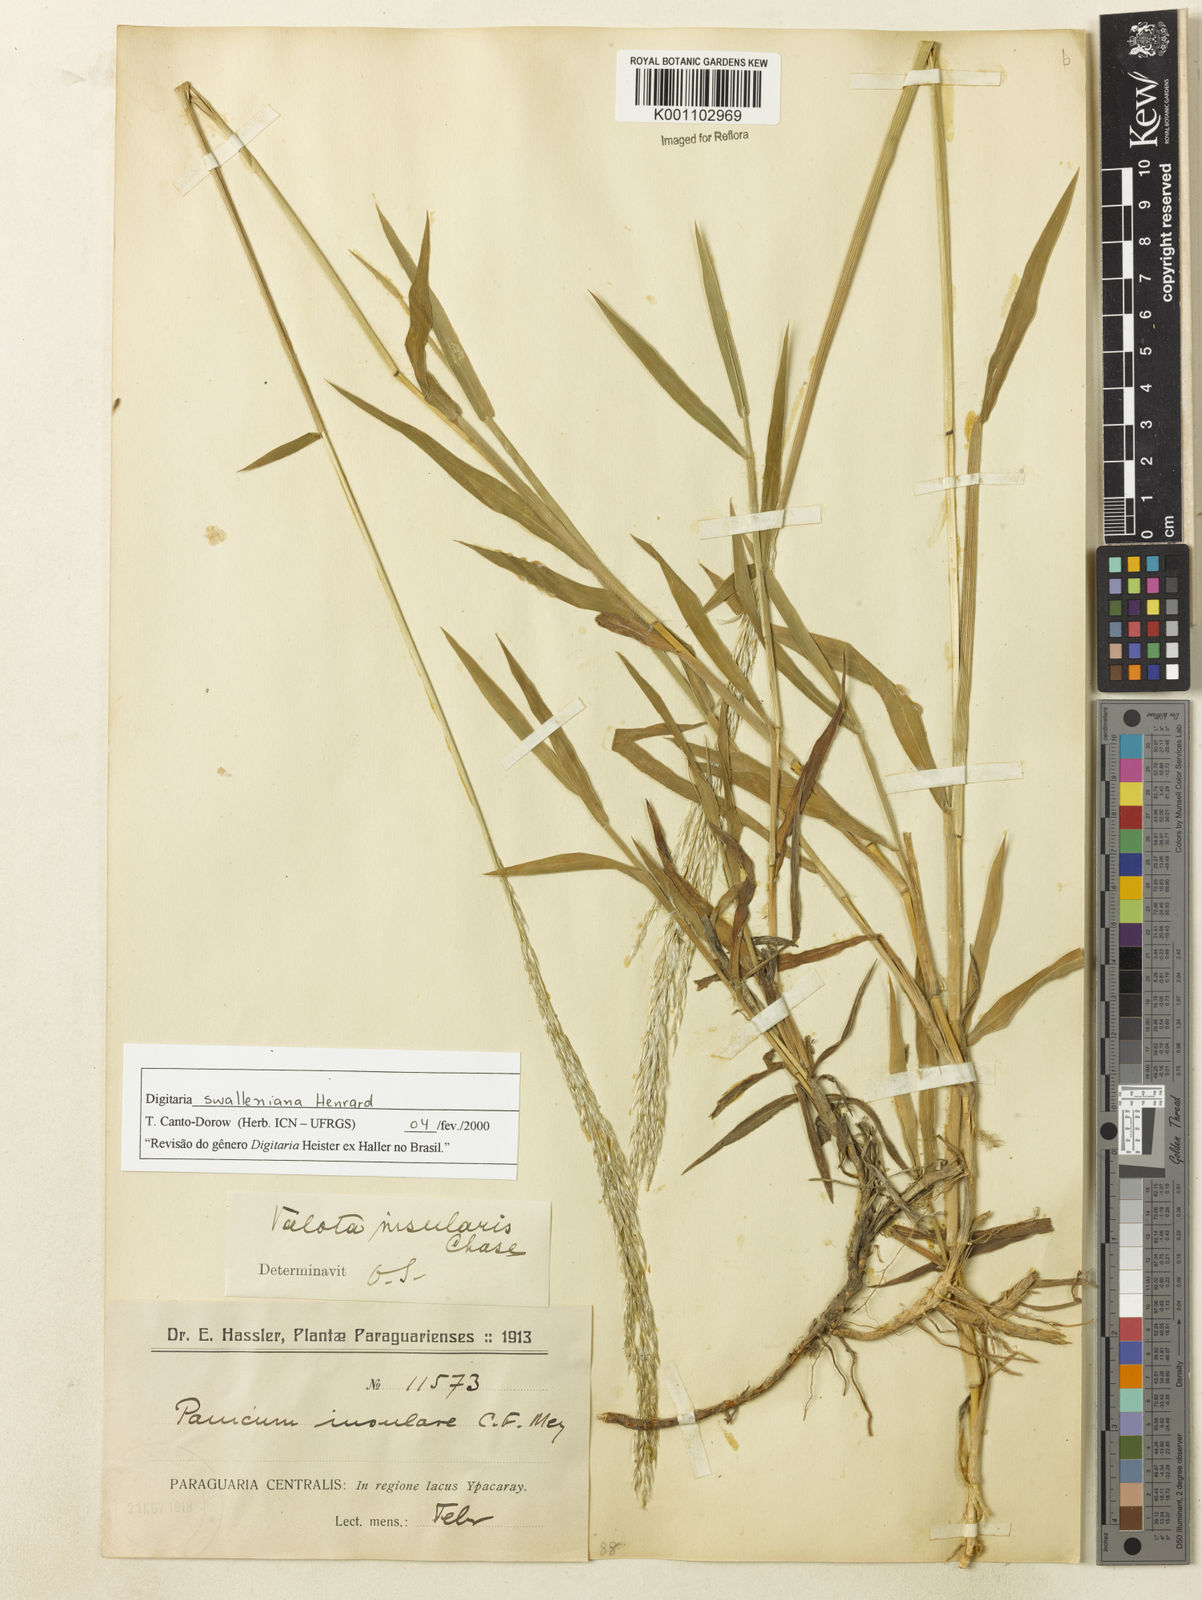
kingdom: Plantae
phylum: Tracheophyta
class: Liliopsida
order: Poales
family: Poaceae
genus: Digitaria
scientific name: Digitaria swalleniana
